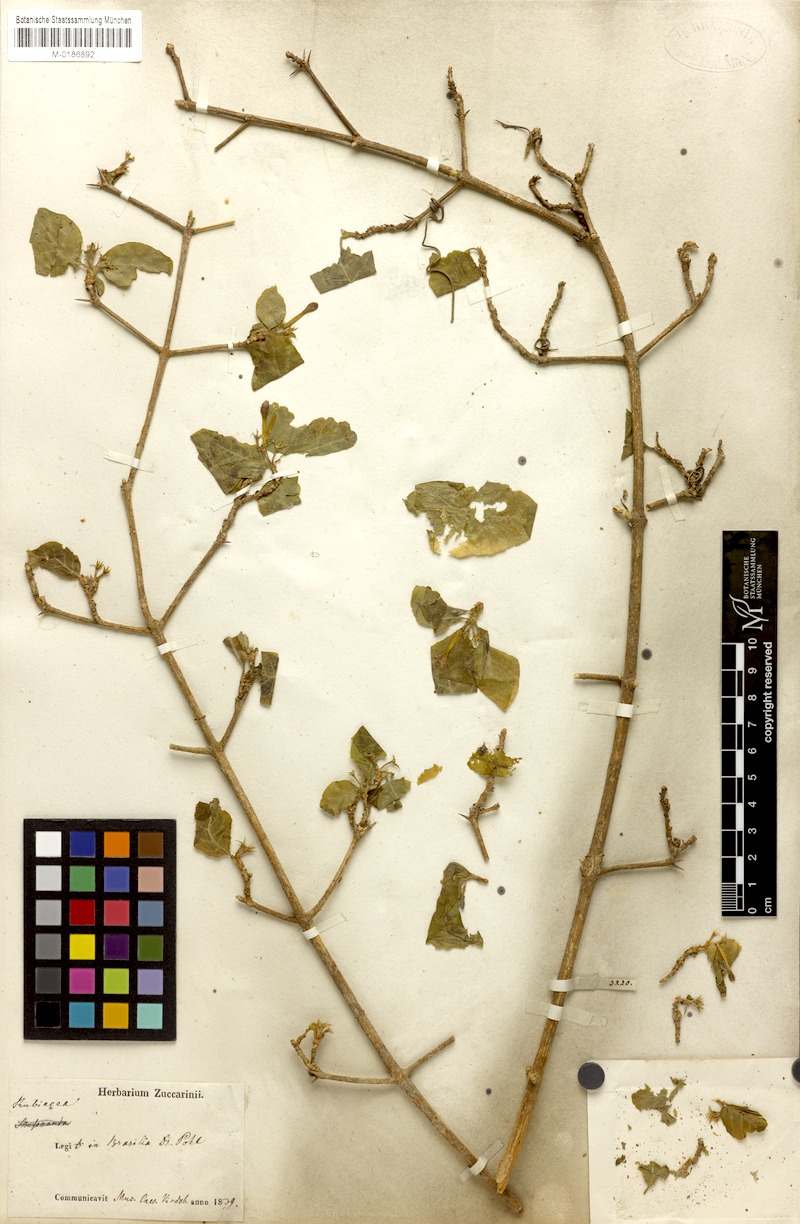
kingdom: Plantae
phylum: Tracheophyta
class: Magnoliopsida
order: Gentianales
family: Rubiaceae
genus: Randia
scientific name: Randia armata
